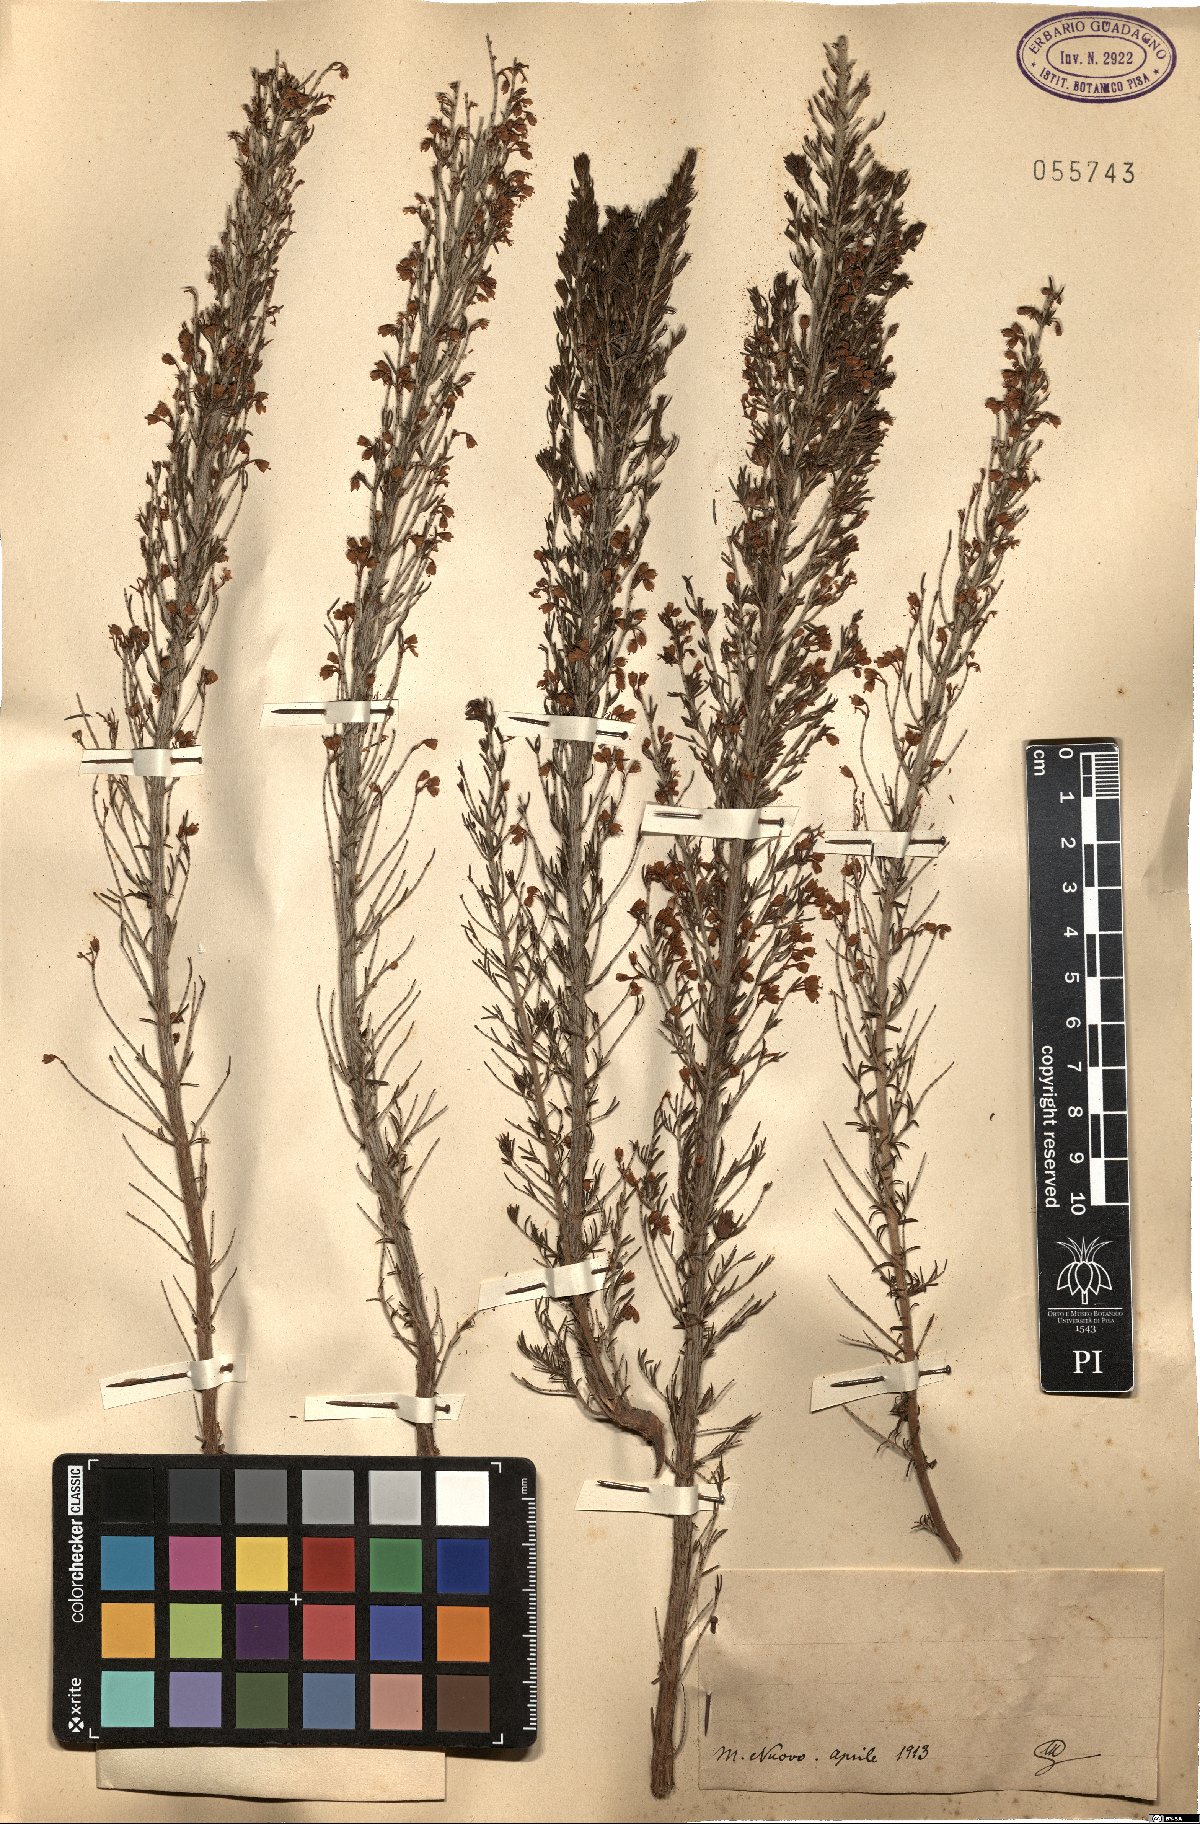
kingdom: Plantae
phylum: Tracheophyta
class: Magnoliopsida
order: Ericales
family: Ericaceae
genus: Erica
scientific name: Erica
